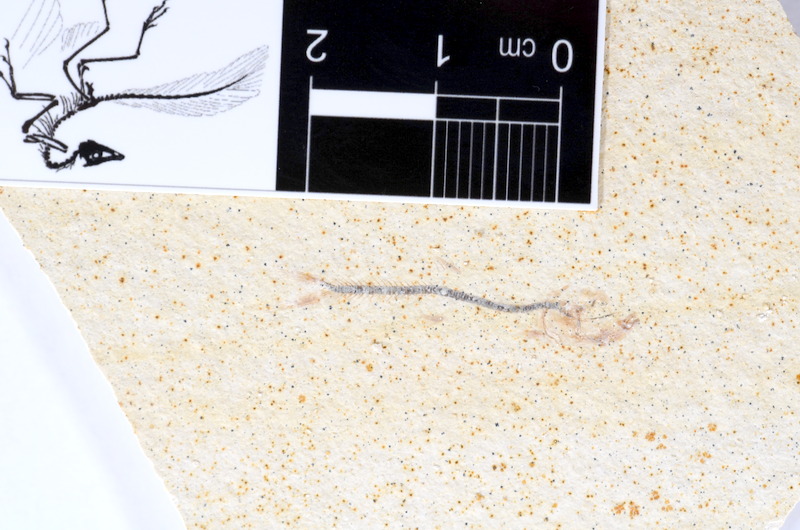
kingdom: Animalia
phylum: Chordata
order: Salmoniformes
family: Orthogonikleithridae
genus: Orthogonikleithrus
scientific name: Orthogonikleithrus hoelli
